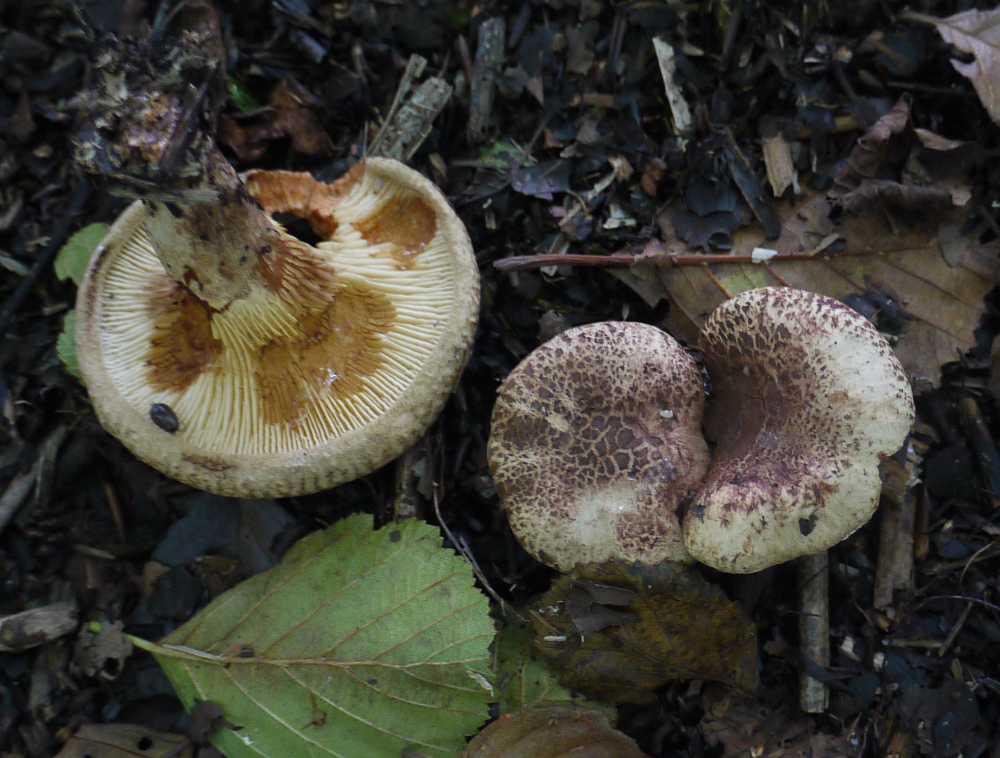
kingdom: Fungi
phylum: Basidiomycota
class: Agaricomycetes
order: Boletales
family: Paxillaceae
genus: Paxillus
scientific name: Paxillus rubicundulus
